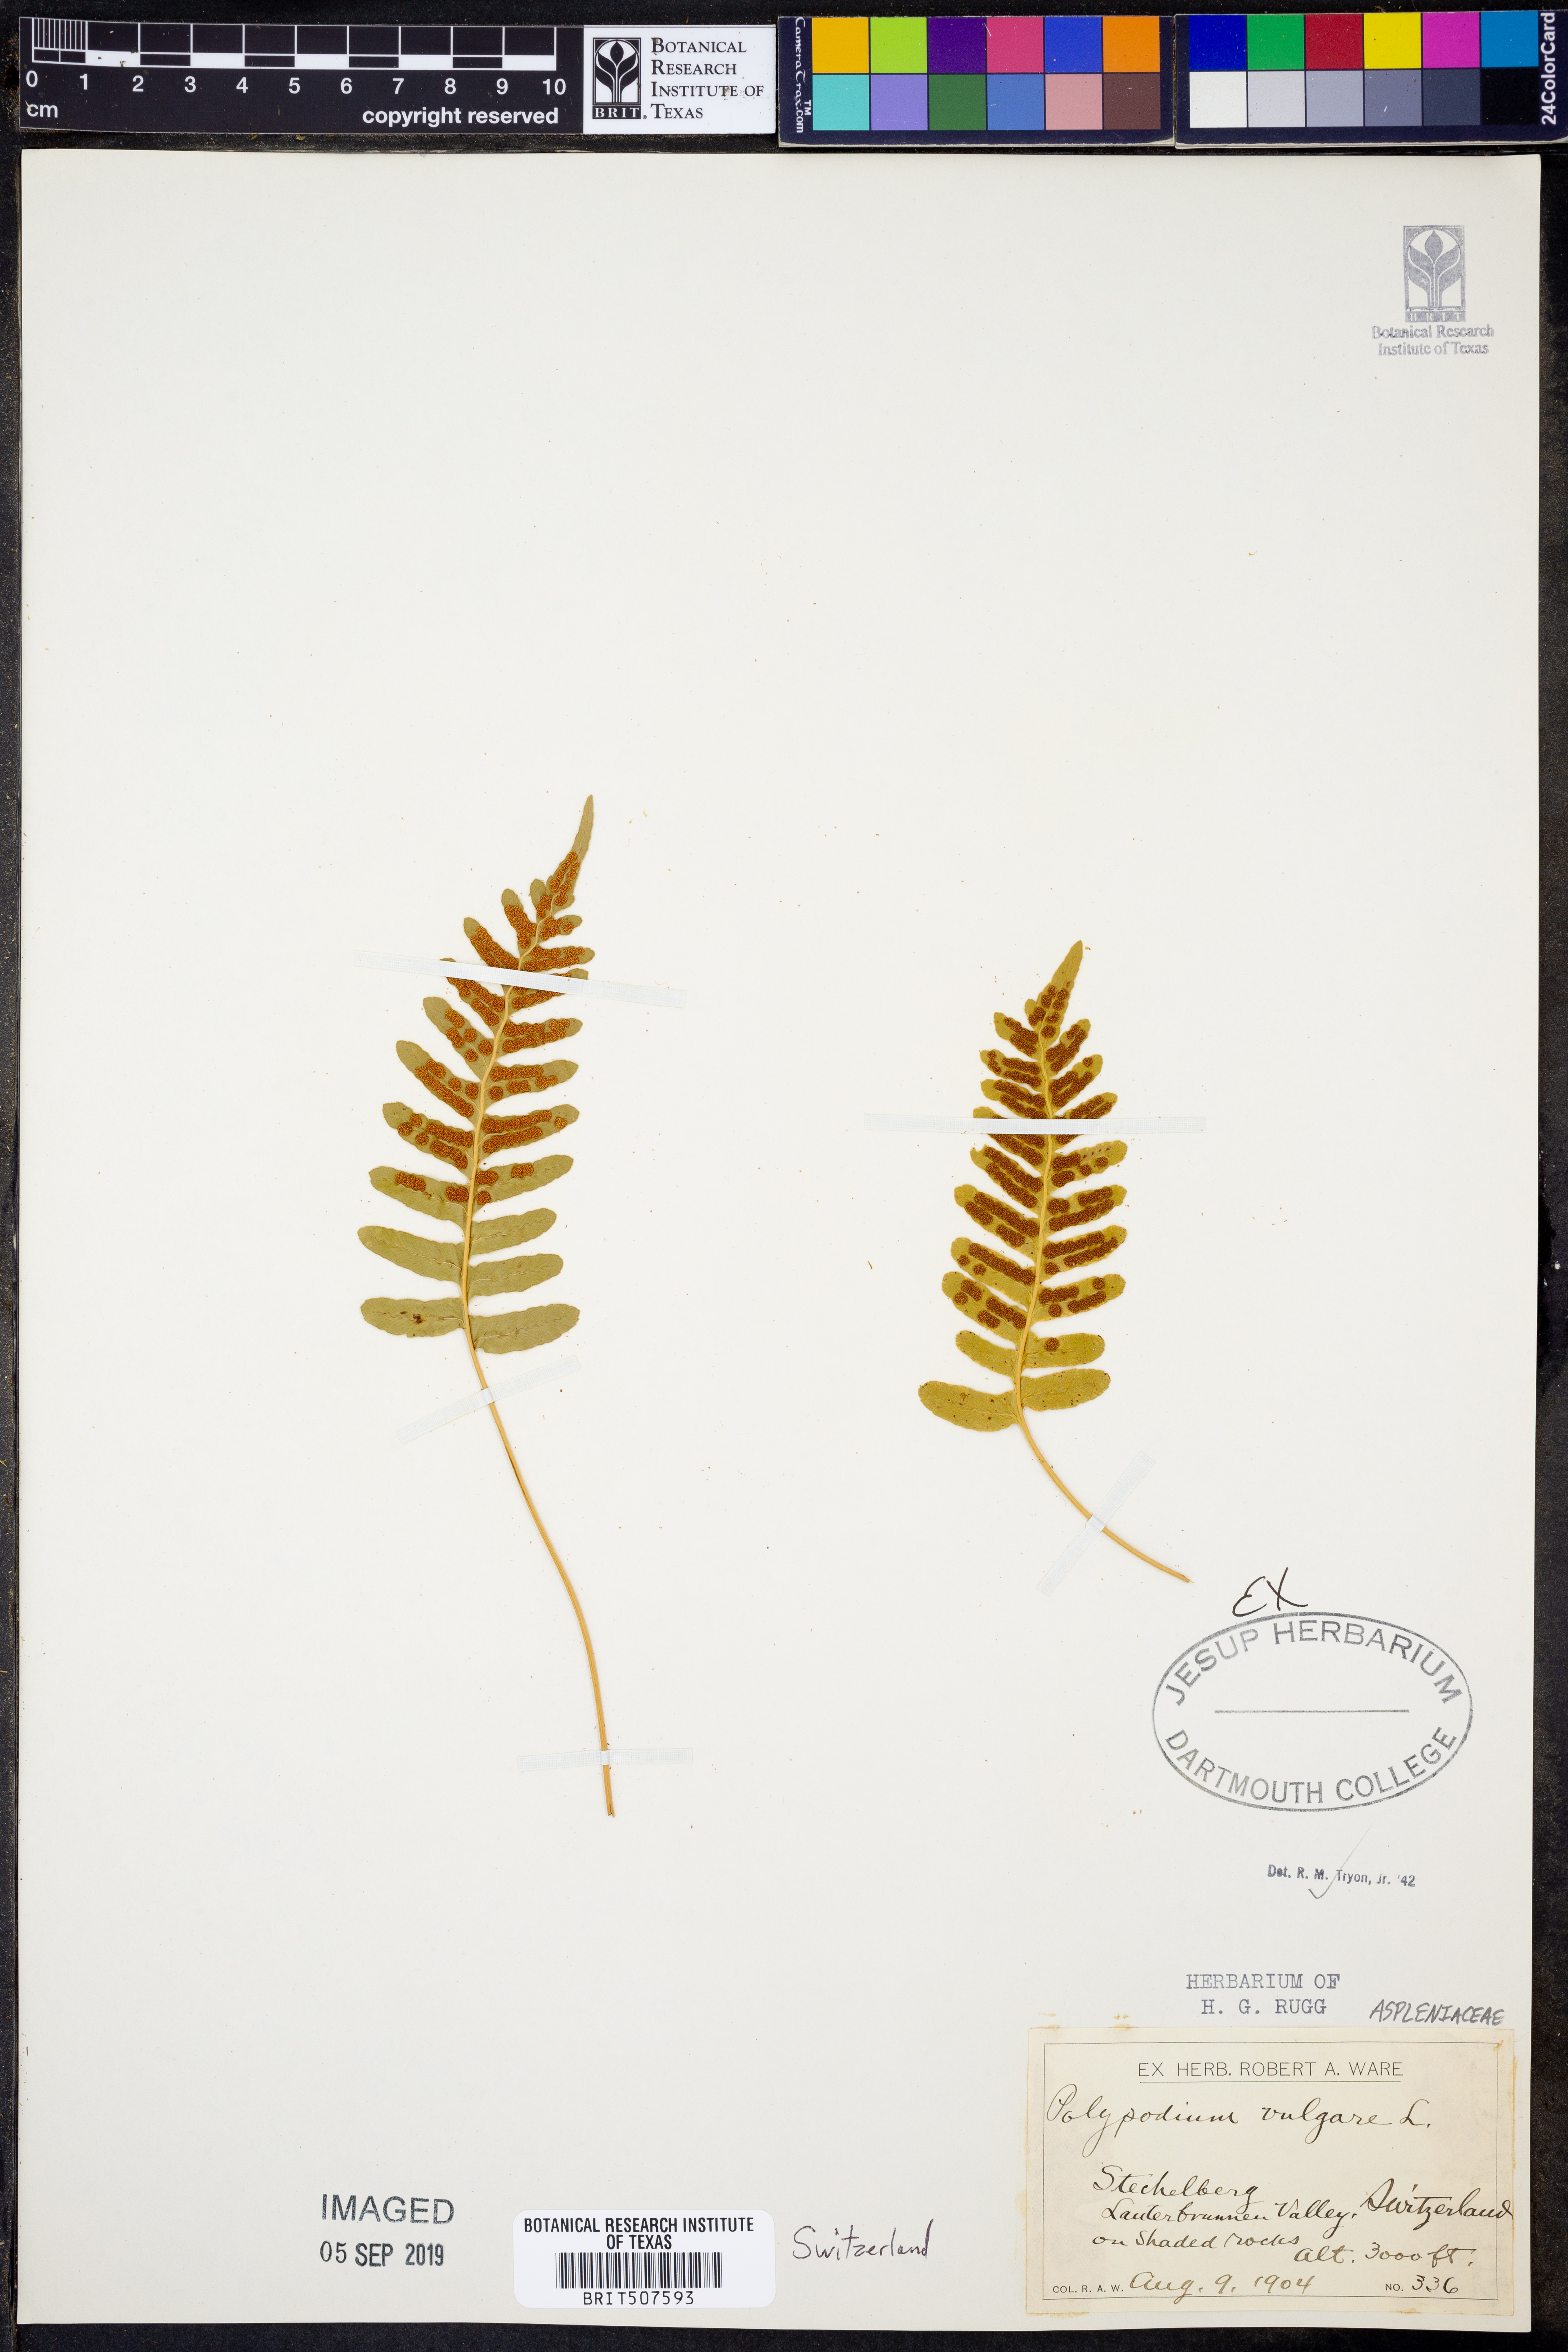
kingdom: Plantae
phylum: Tracheophyta
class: Polypodiopsida
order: Polypodiales
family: Polypodiaceae
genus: Polypodium
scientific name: Polypodium vulgare
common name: Common polypody
